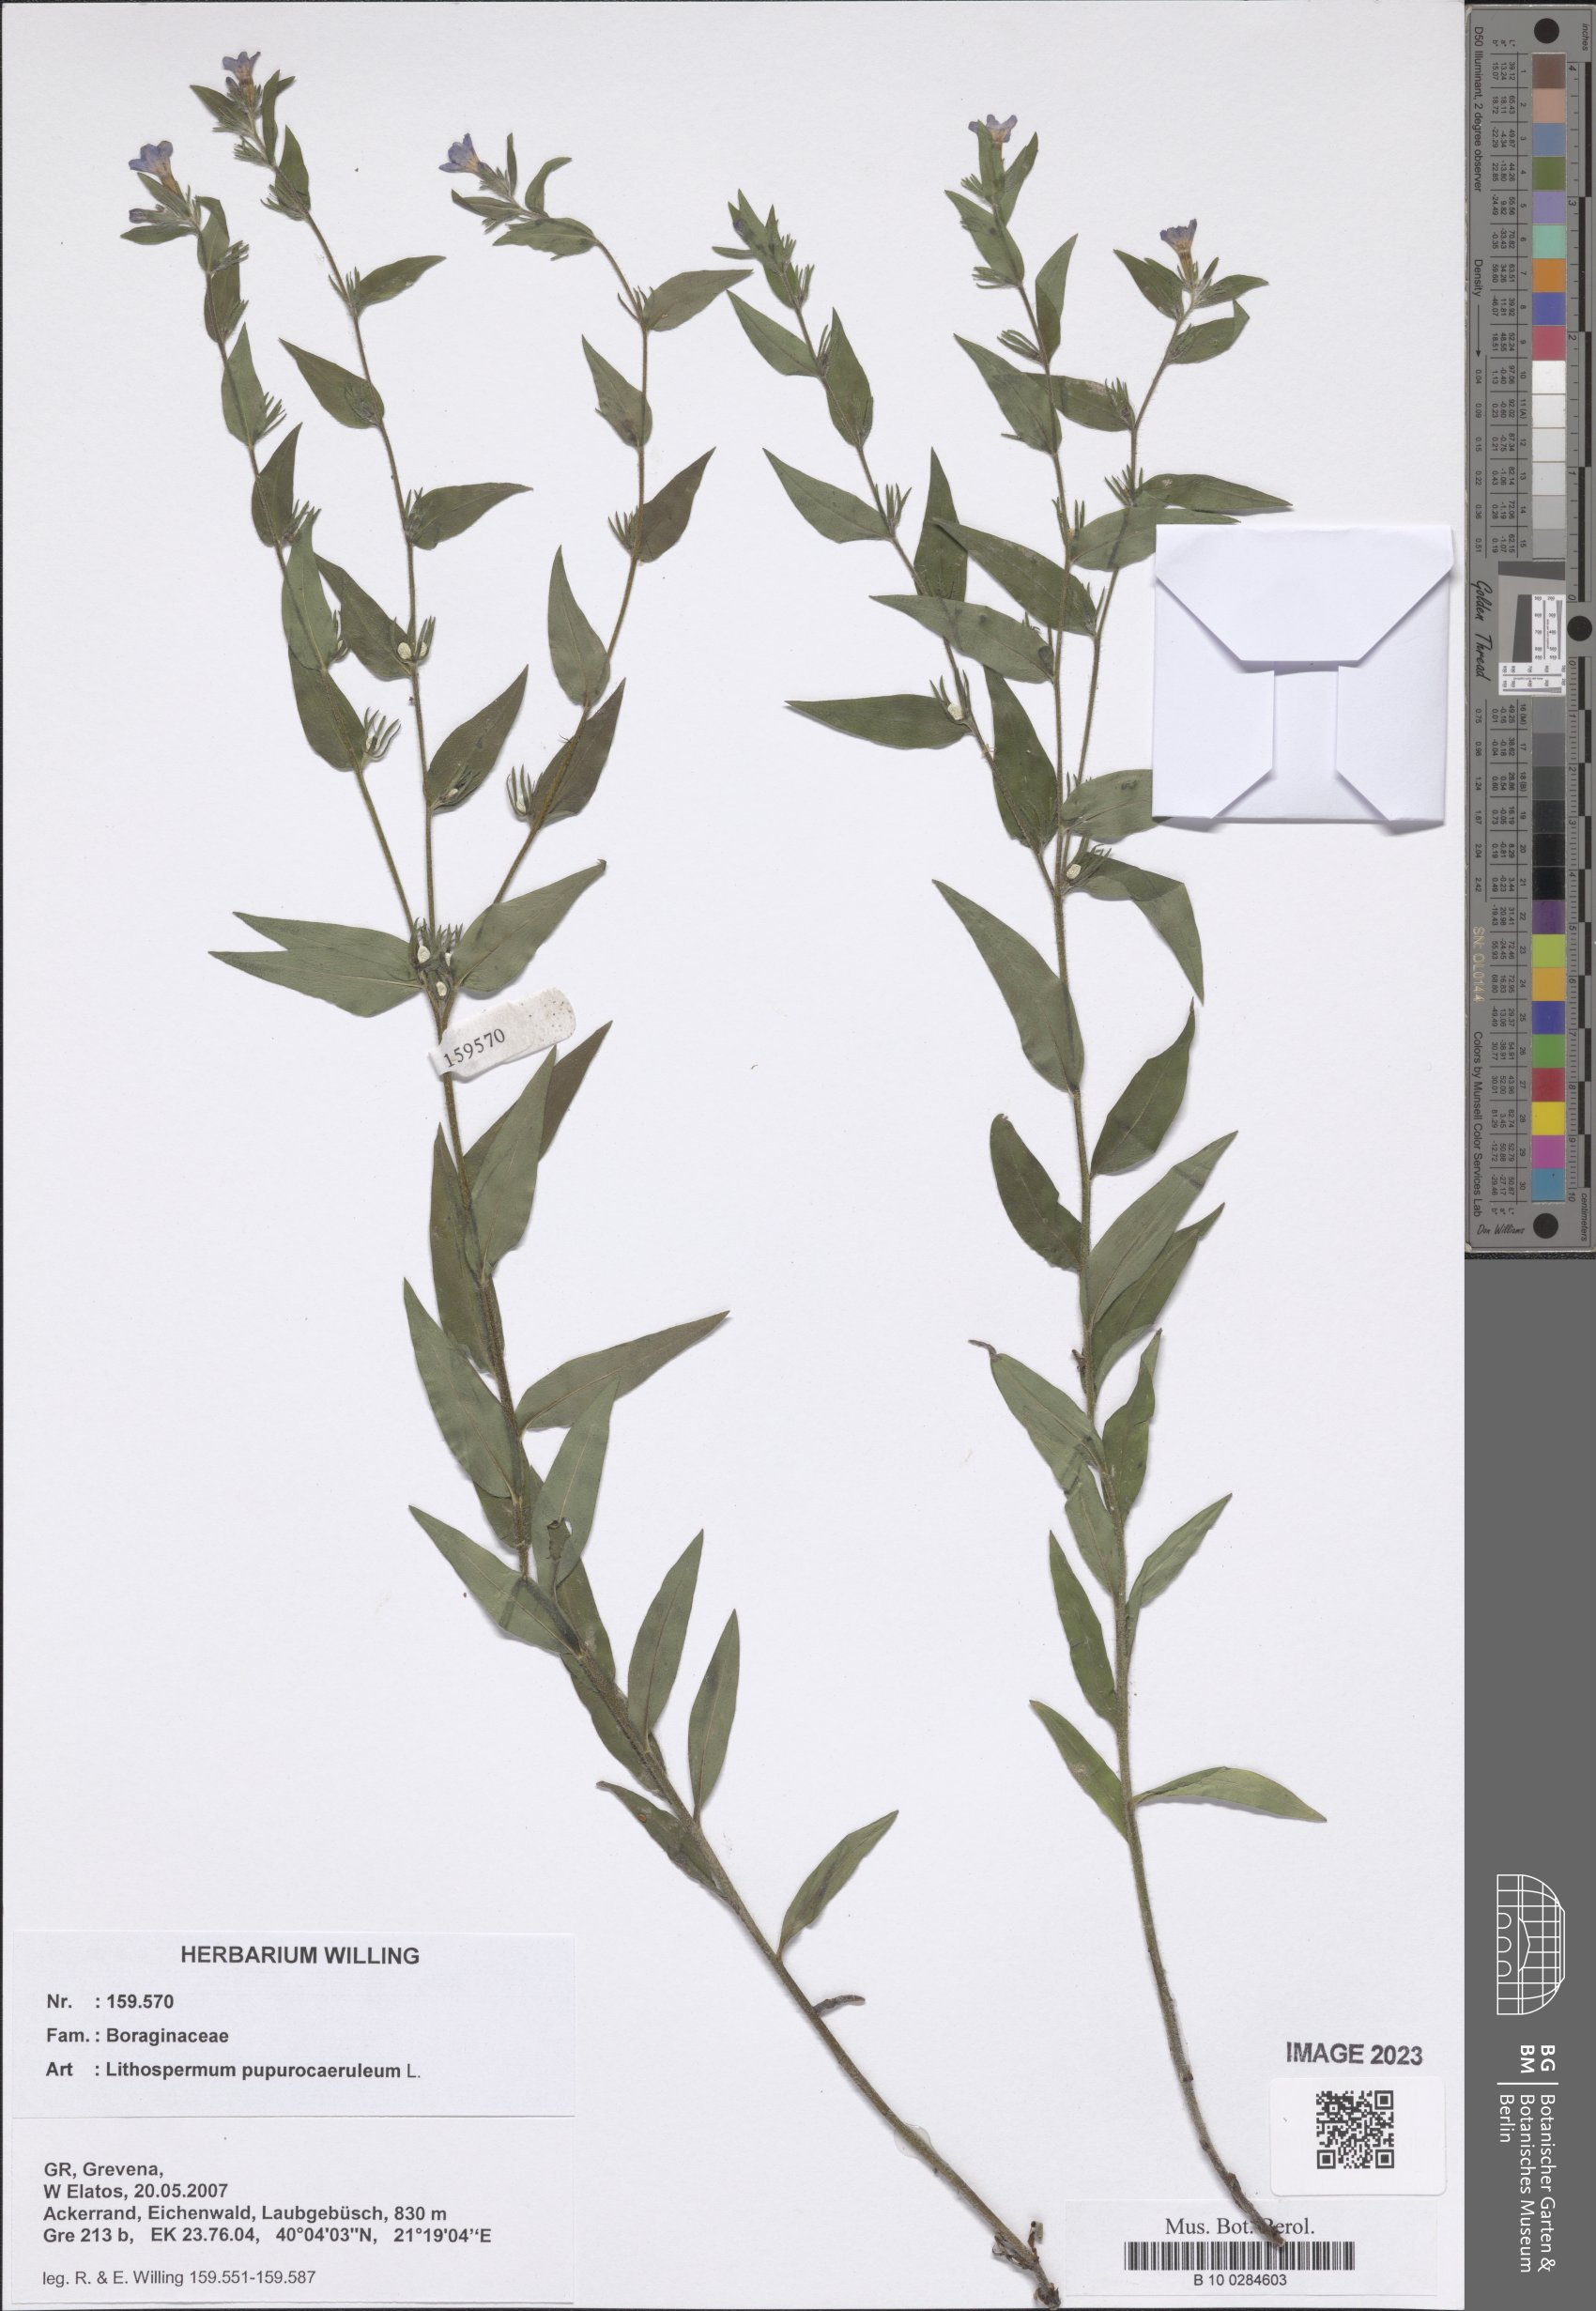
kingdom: Plantae
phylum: Tracheophyta
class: Magnoliopsida
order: Boraginales
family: Boraginaceae
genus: Aegonychon
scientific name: Aegonychon purpurocaeruleum
